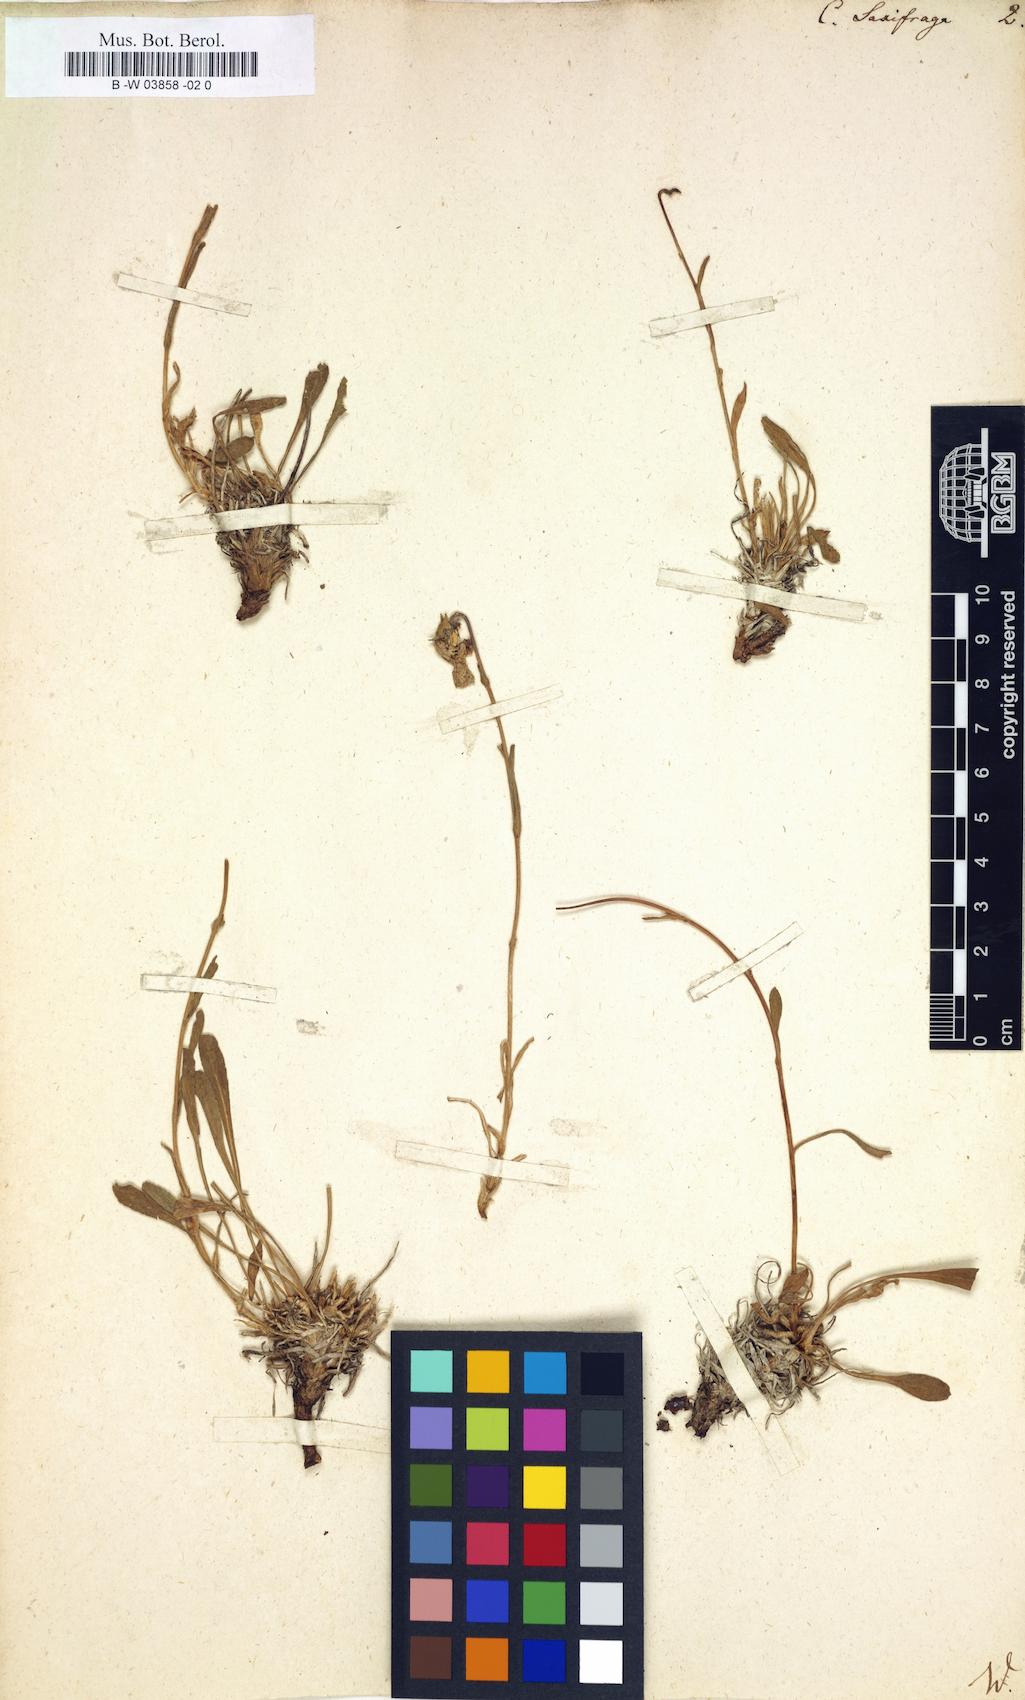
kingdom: Plantae
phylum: Tracheophyta
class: Magnoliopsida
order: Asterales
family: Campanulaceae
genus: Campanula
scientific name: Campanula saxifraga
